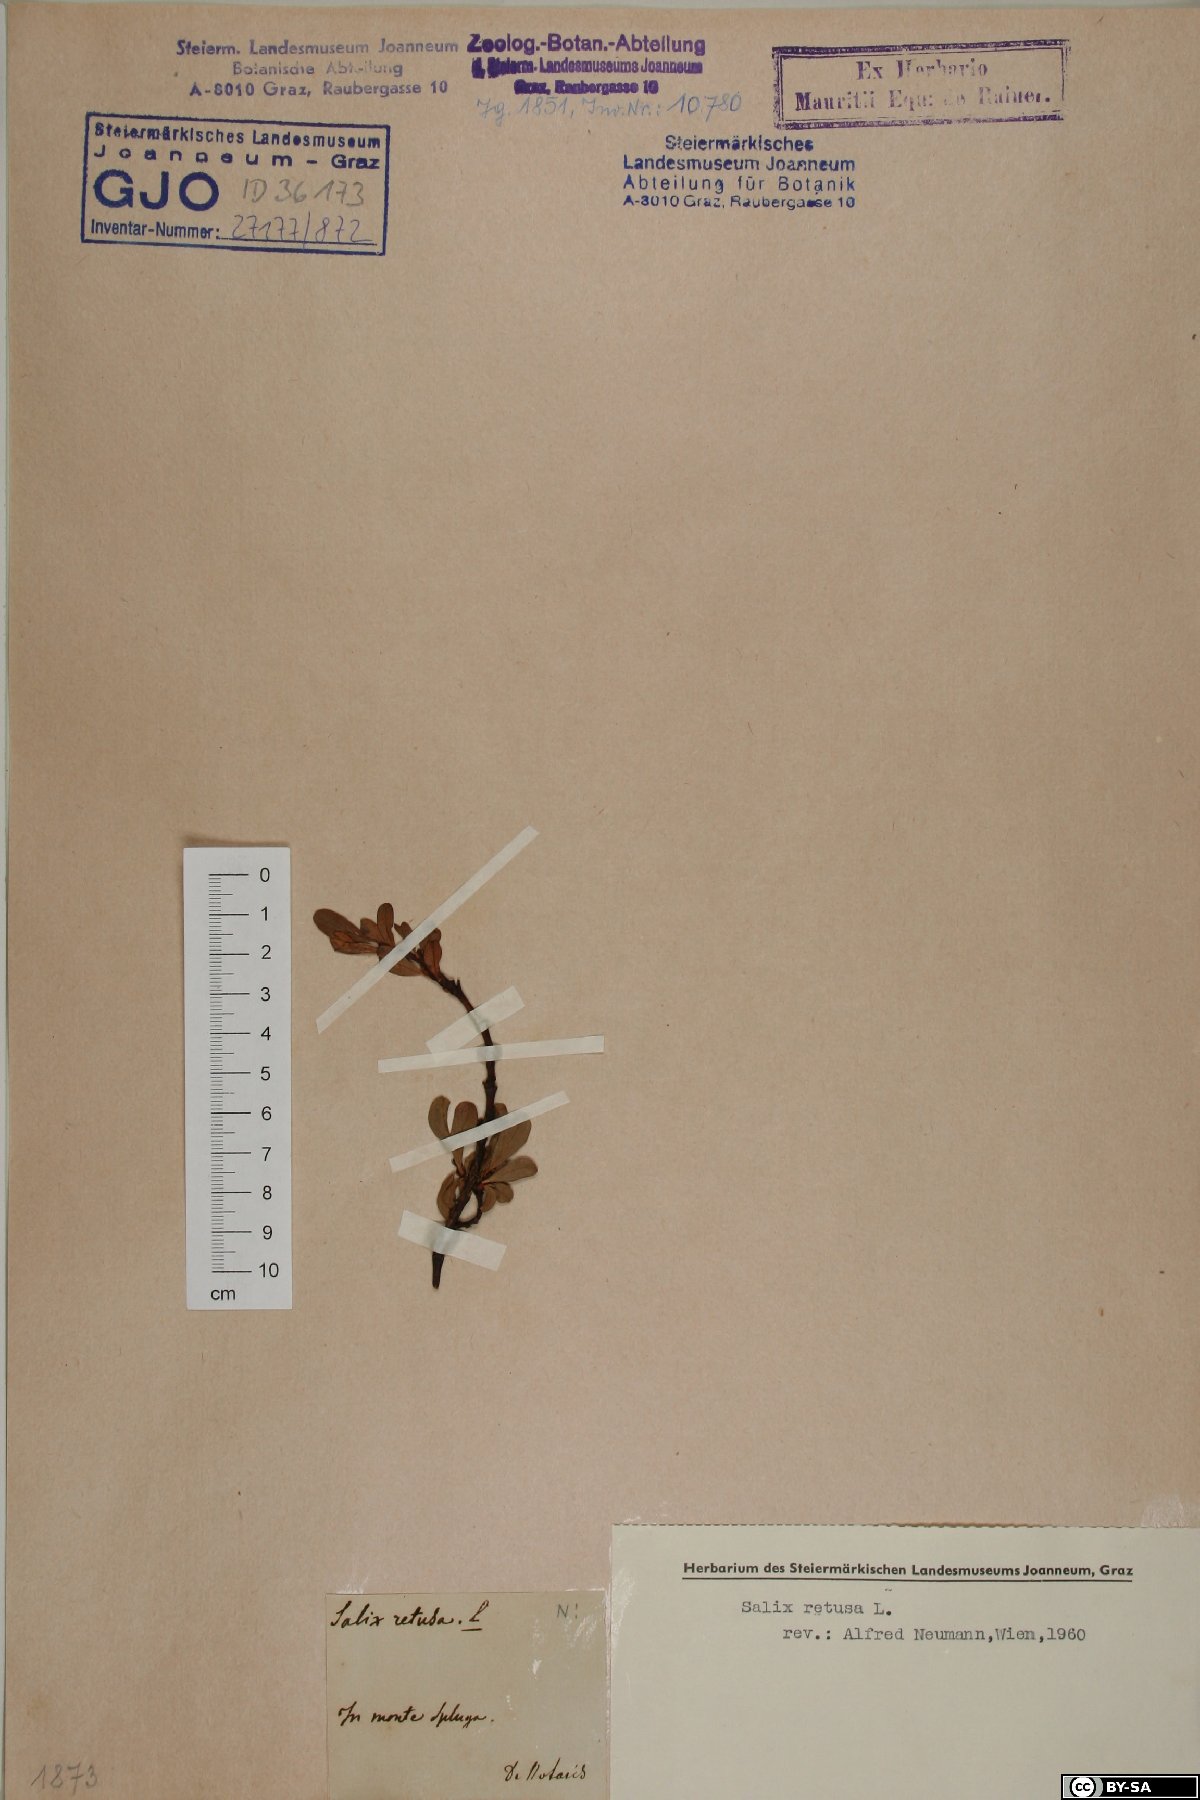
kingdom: Plantae
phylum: Tracheophyta
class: Magnoliopsida
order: Malpighiales
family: Salicaceae
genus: Salix
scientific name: Salix retusa
